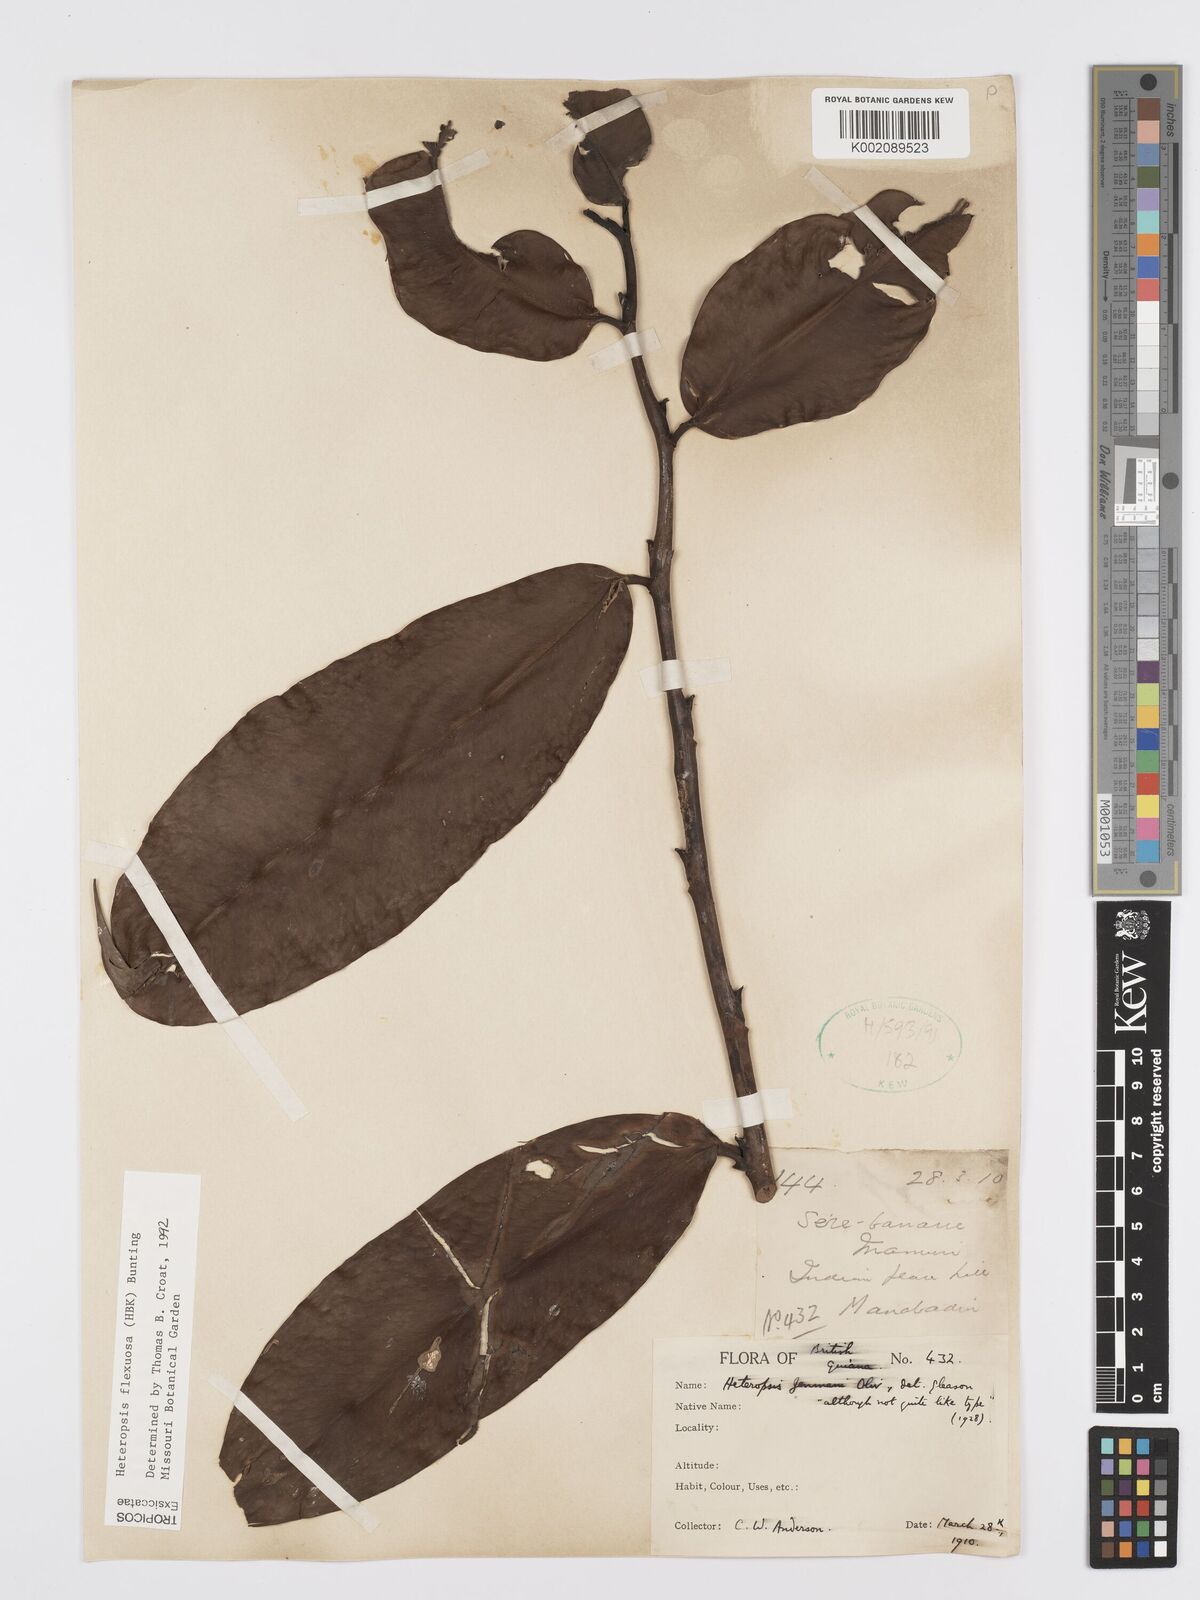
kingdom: Plantae
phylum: Tracheophyta
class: Liliopsida
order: Alismatales
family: Araceae
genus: Heteropsis
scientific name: Heteropsis flexuosa
